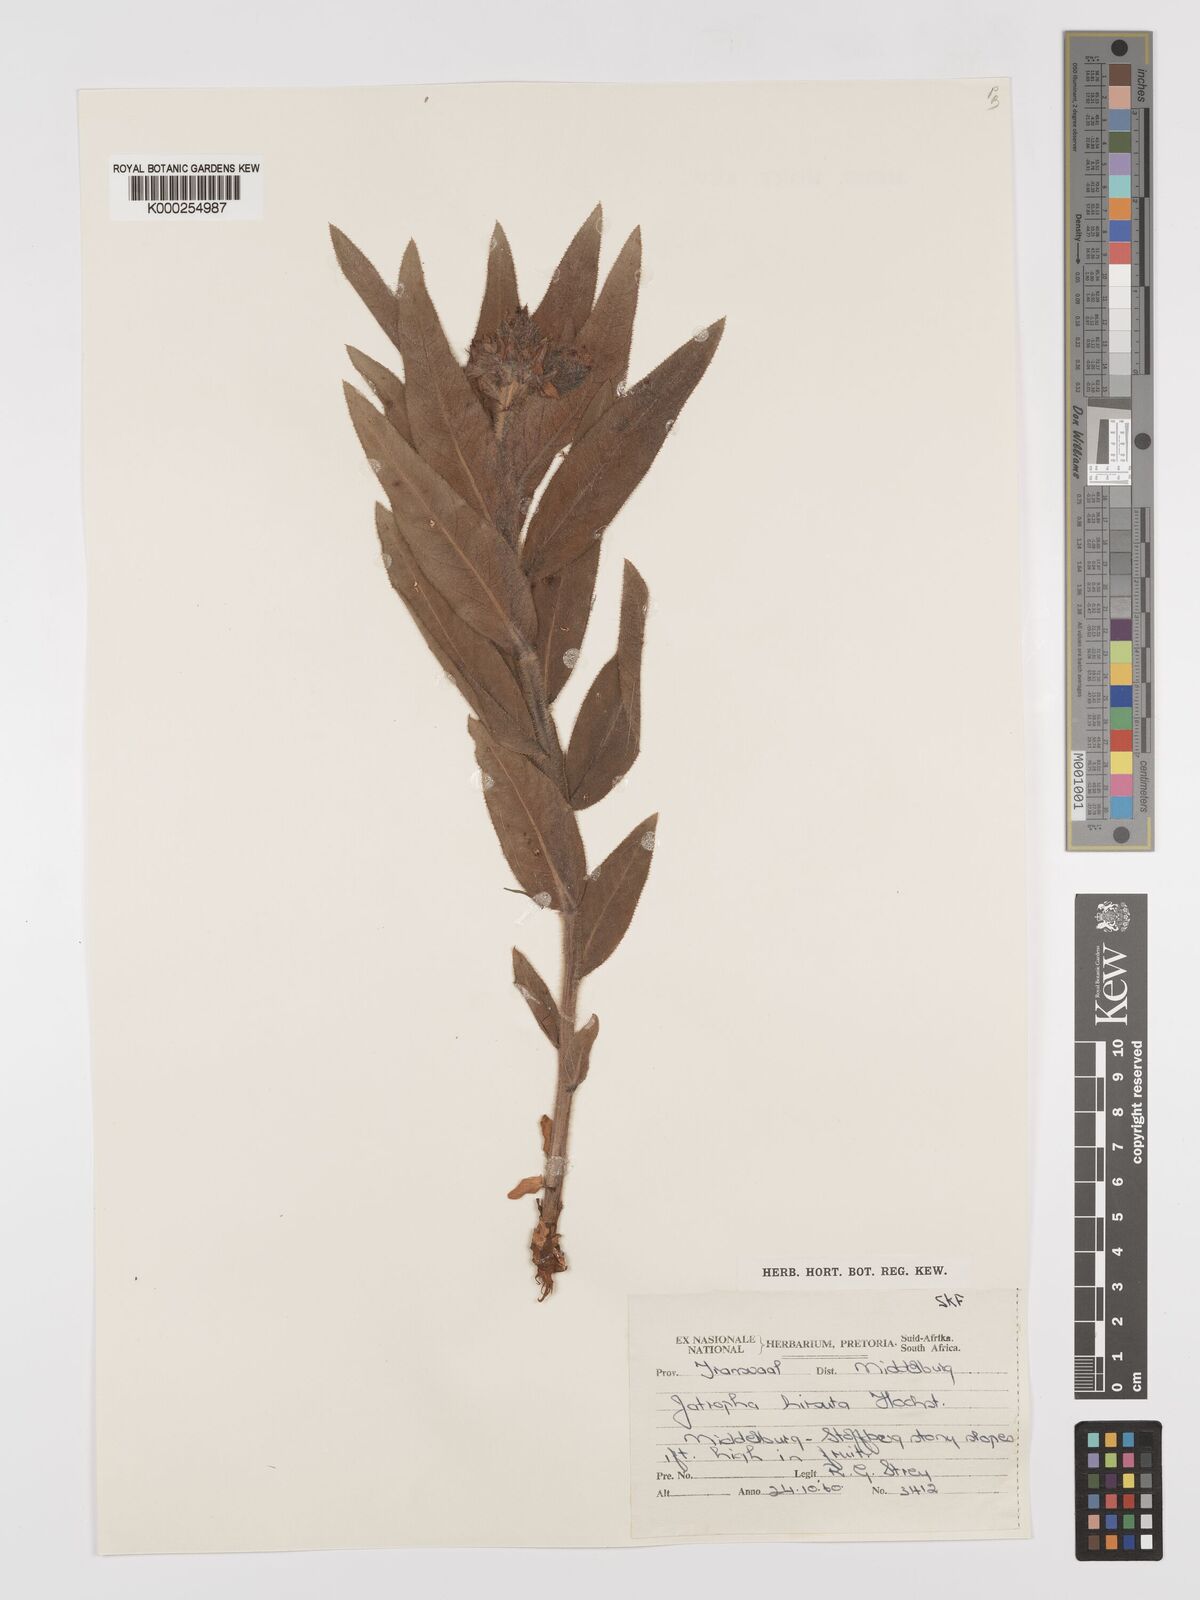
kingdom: Plantae
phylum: Tracheophyta
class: Magnoliopsida
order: Malpighiales
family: Euphorbiaceae
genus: Jatropha
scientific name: Jatropha hirsuta
